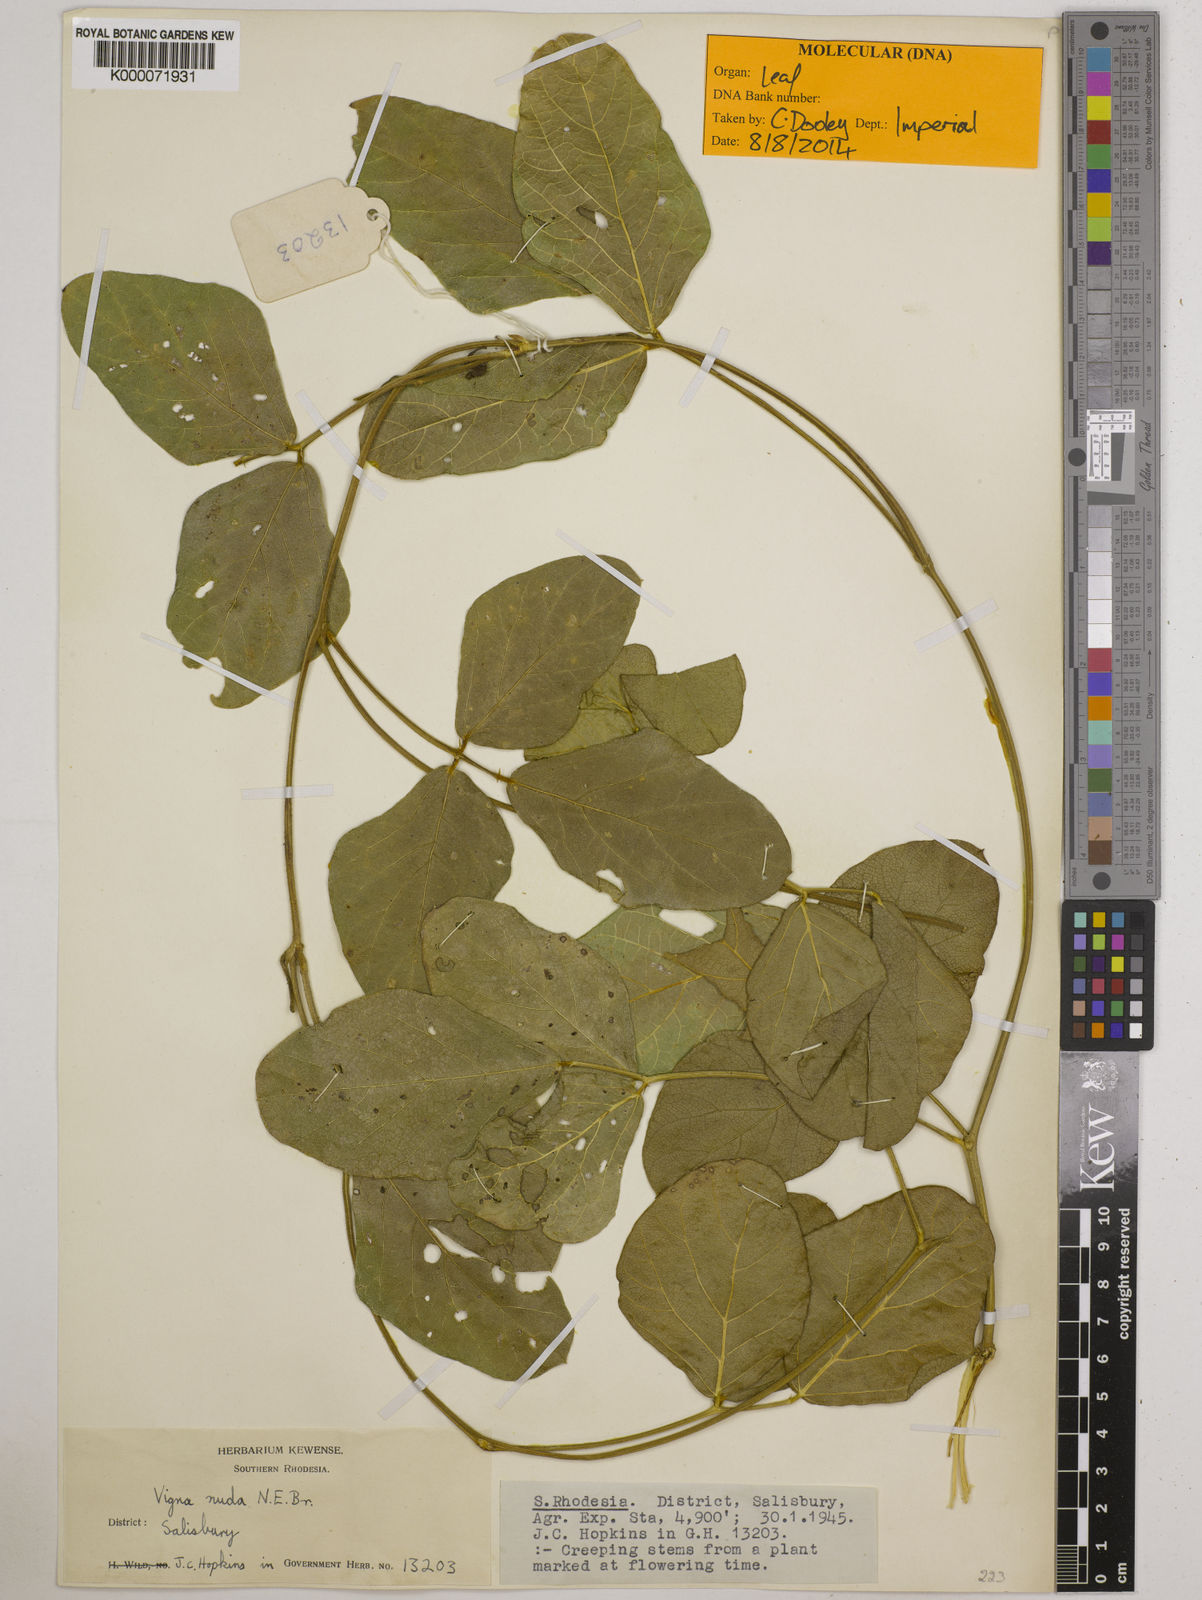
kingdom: Plantae
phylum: Tracheophyta
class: Magnoliopsida
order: Fabales
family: Fabaceae
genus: Vigna
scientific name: Vigna antunesii
